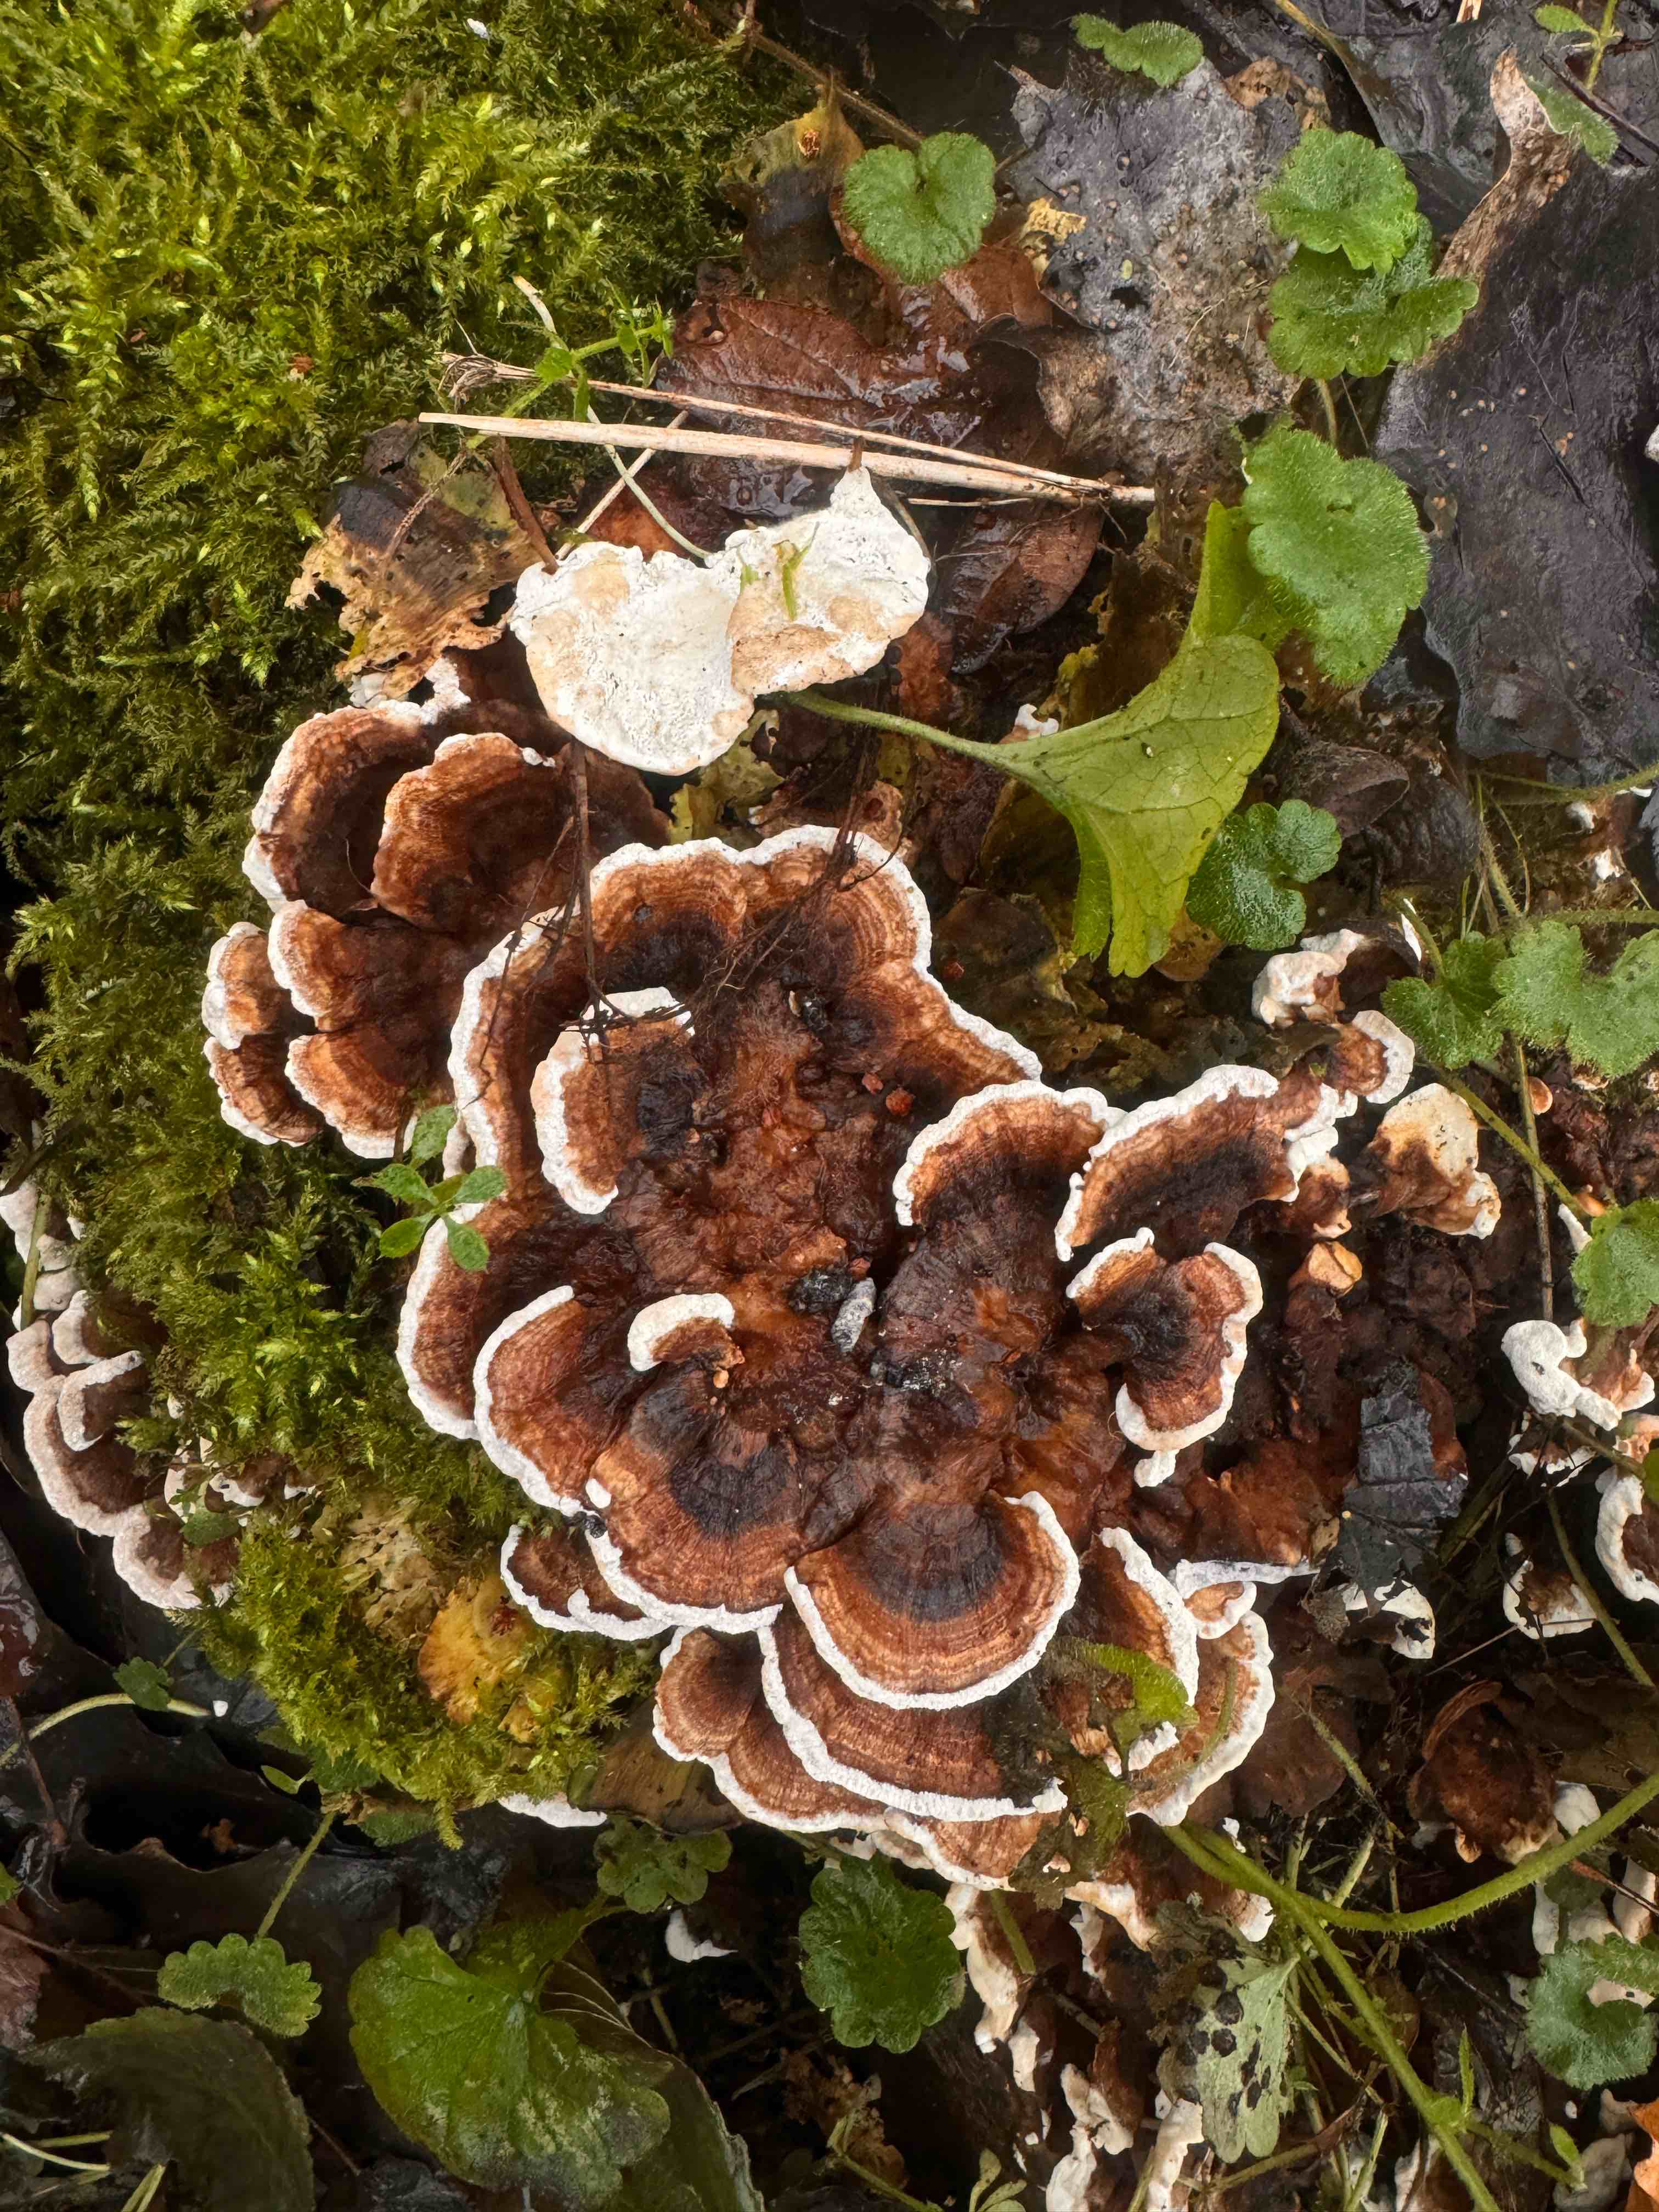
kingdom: Fungi
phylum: Basidiomycota
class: Agaricomycetes
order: Polyporales
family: Polyporaceae
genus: Trametes
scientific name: Trametes versicolor
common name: broget læderporesvamp
